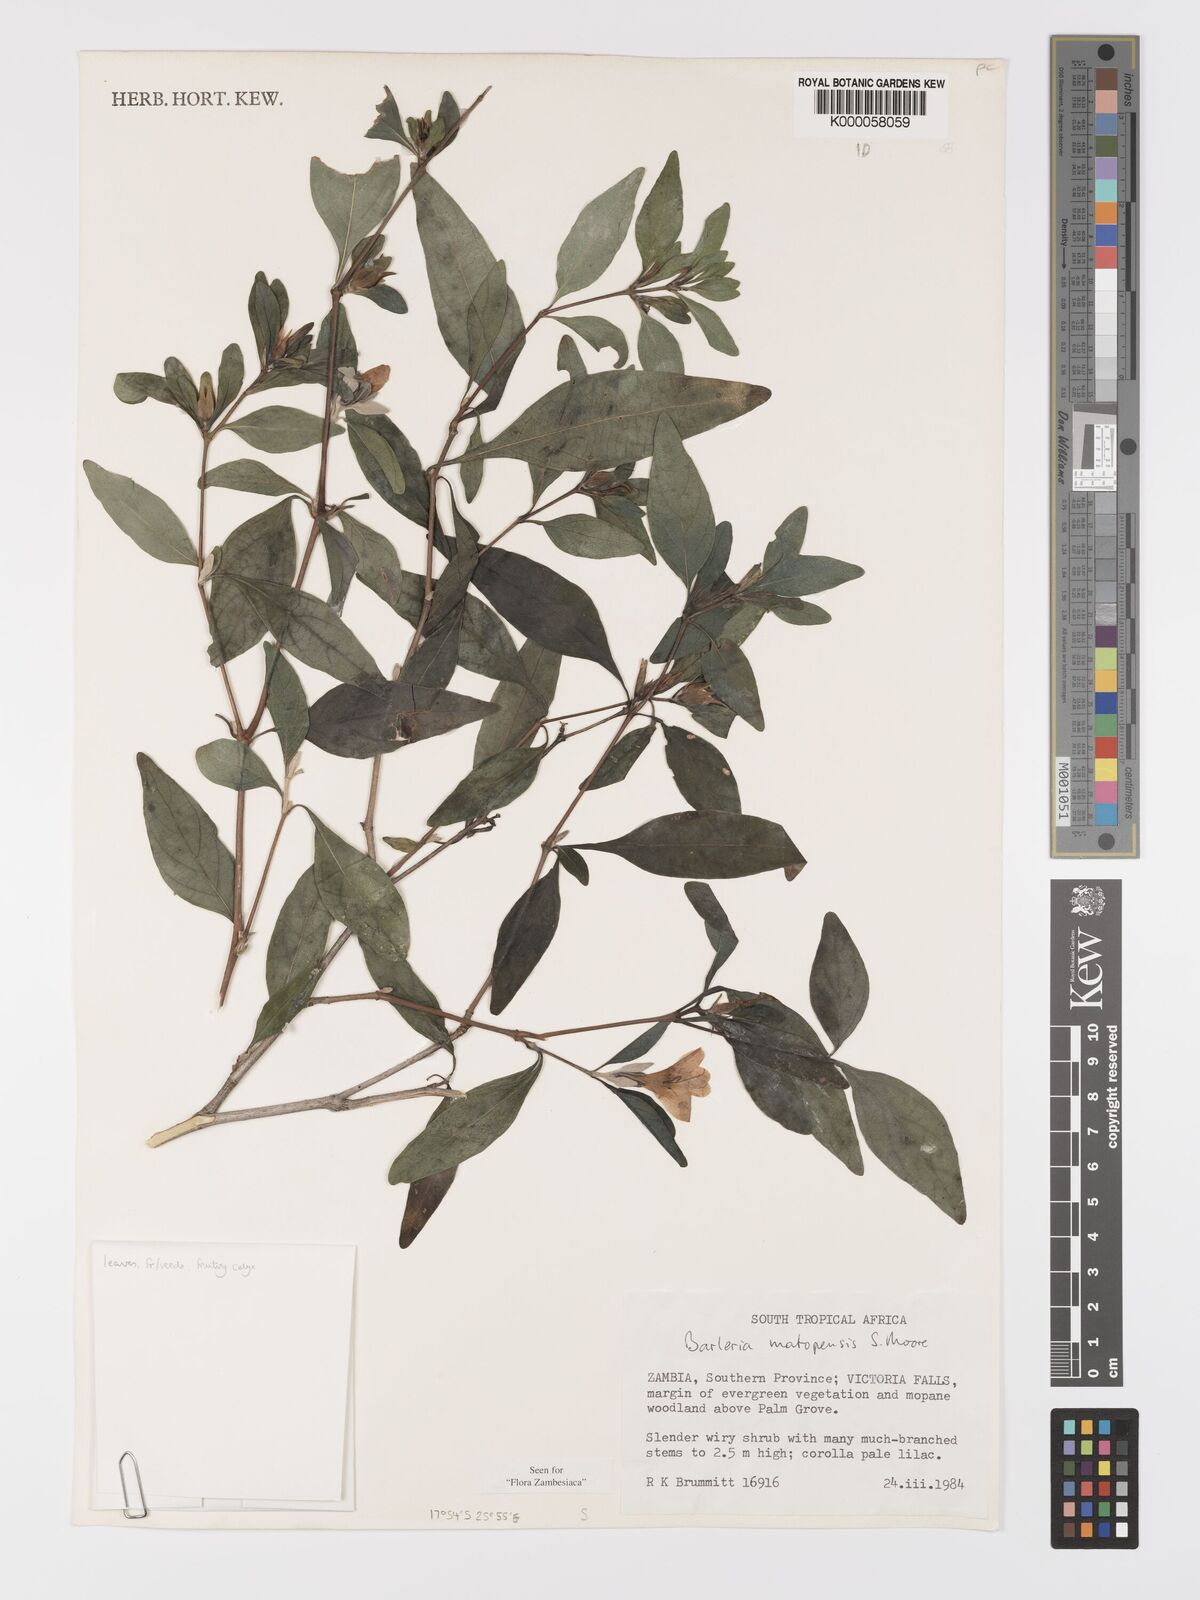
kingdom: Plantae
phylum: Tracheophyta
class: Magnoliopsida
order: Lamiales
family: Acanthaceae
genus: Barleria
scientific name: Barleria matopensis
